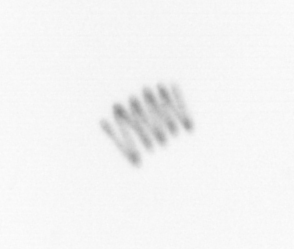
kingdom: Chromista
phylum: Ochrophyta
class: Bacillariophyceae
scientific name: Bacillariophyceae
